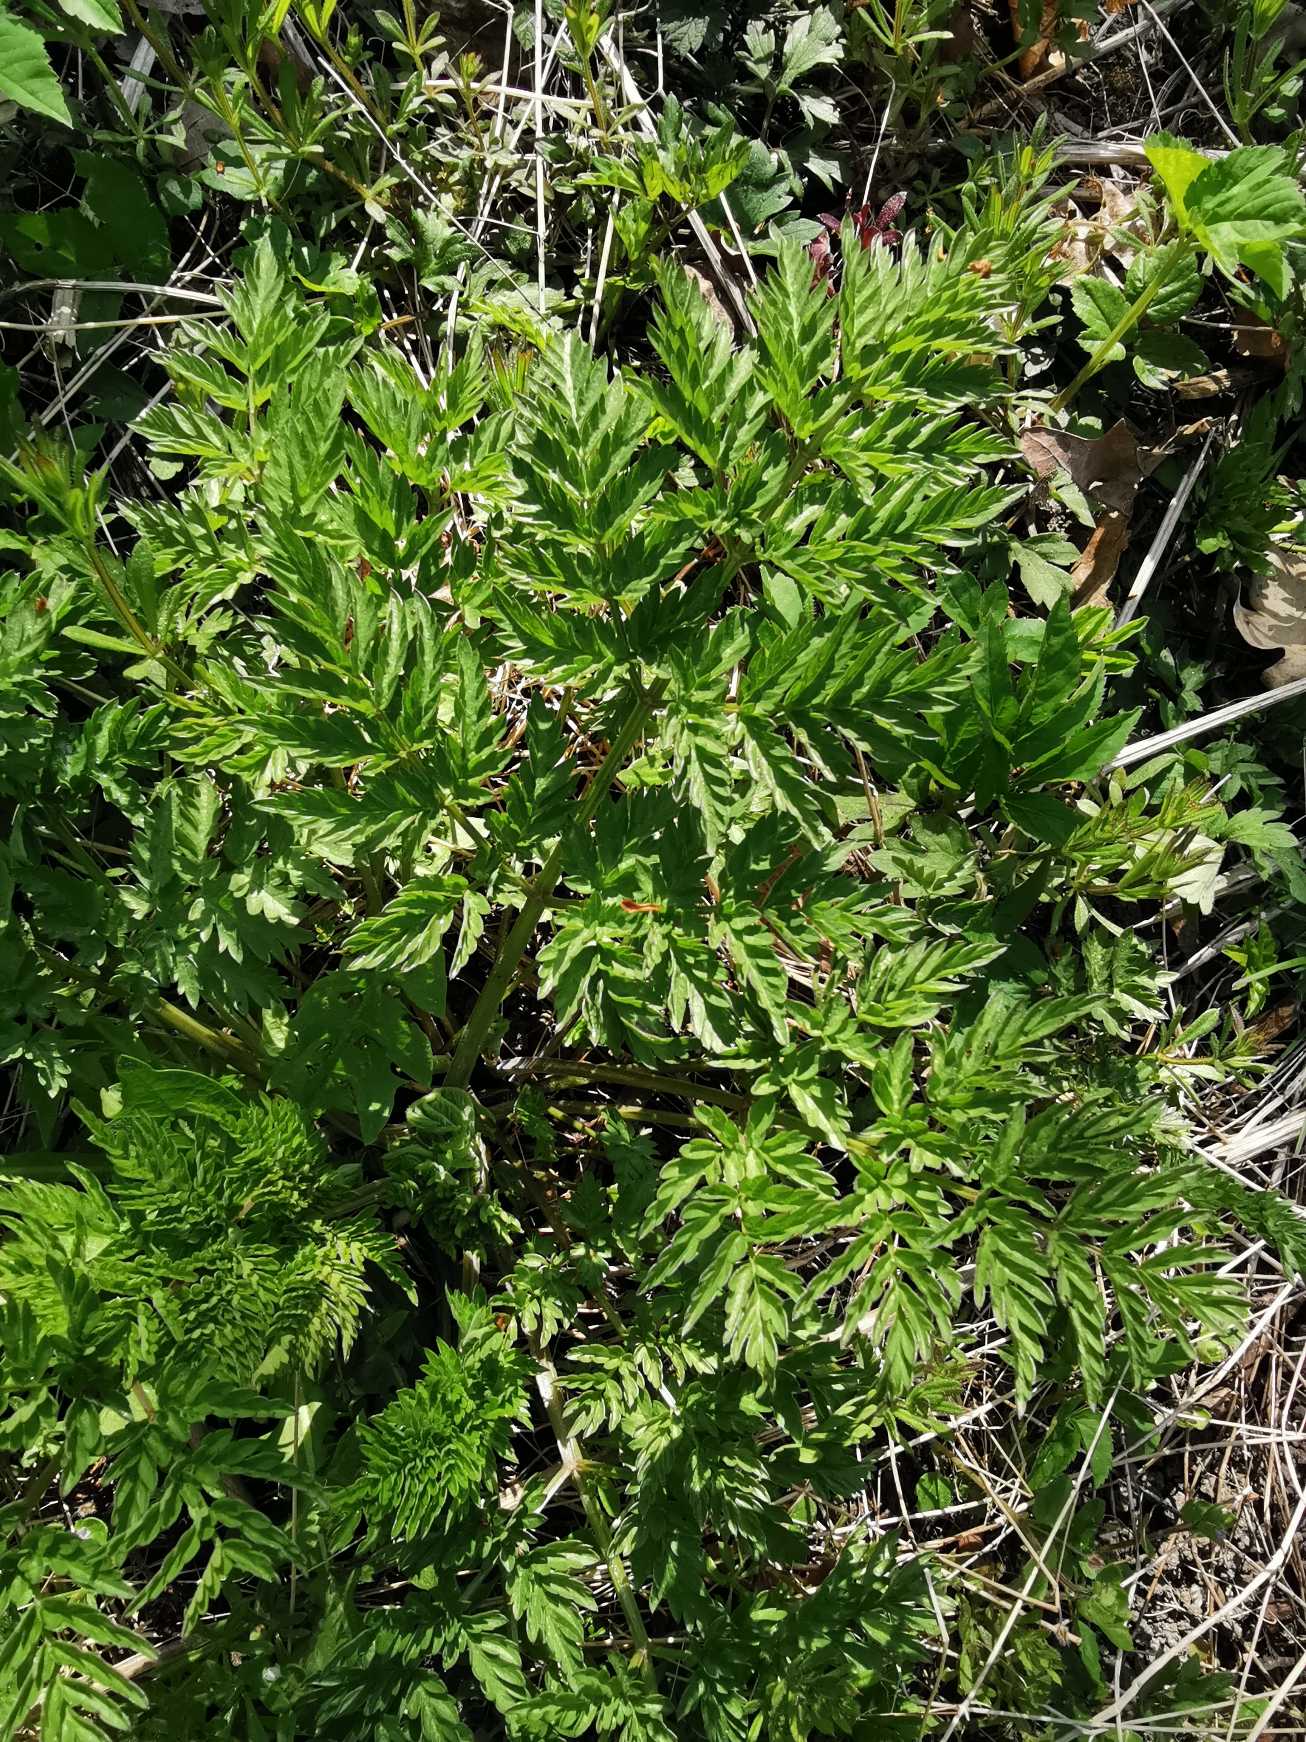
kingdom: Plantae
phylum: Tracheophyta
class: Magnoliopsida
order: Apiales
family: Apiaceae
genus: Anthriscus
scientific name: Anthriscus sylvestris
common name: Vild kørvel
